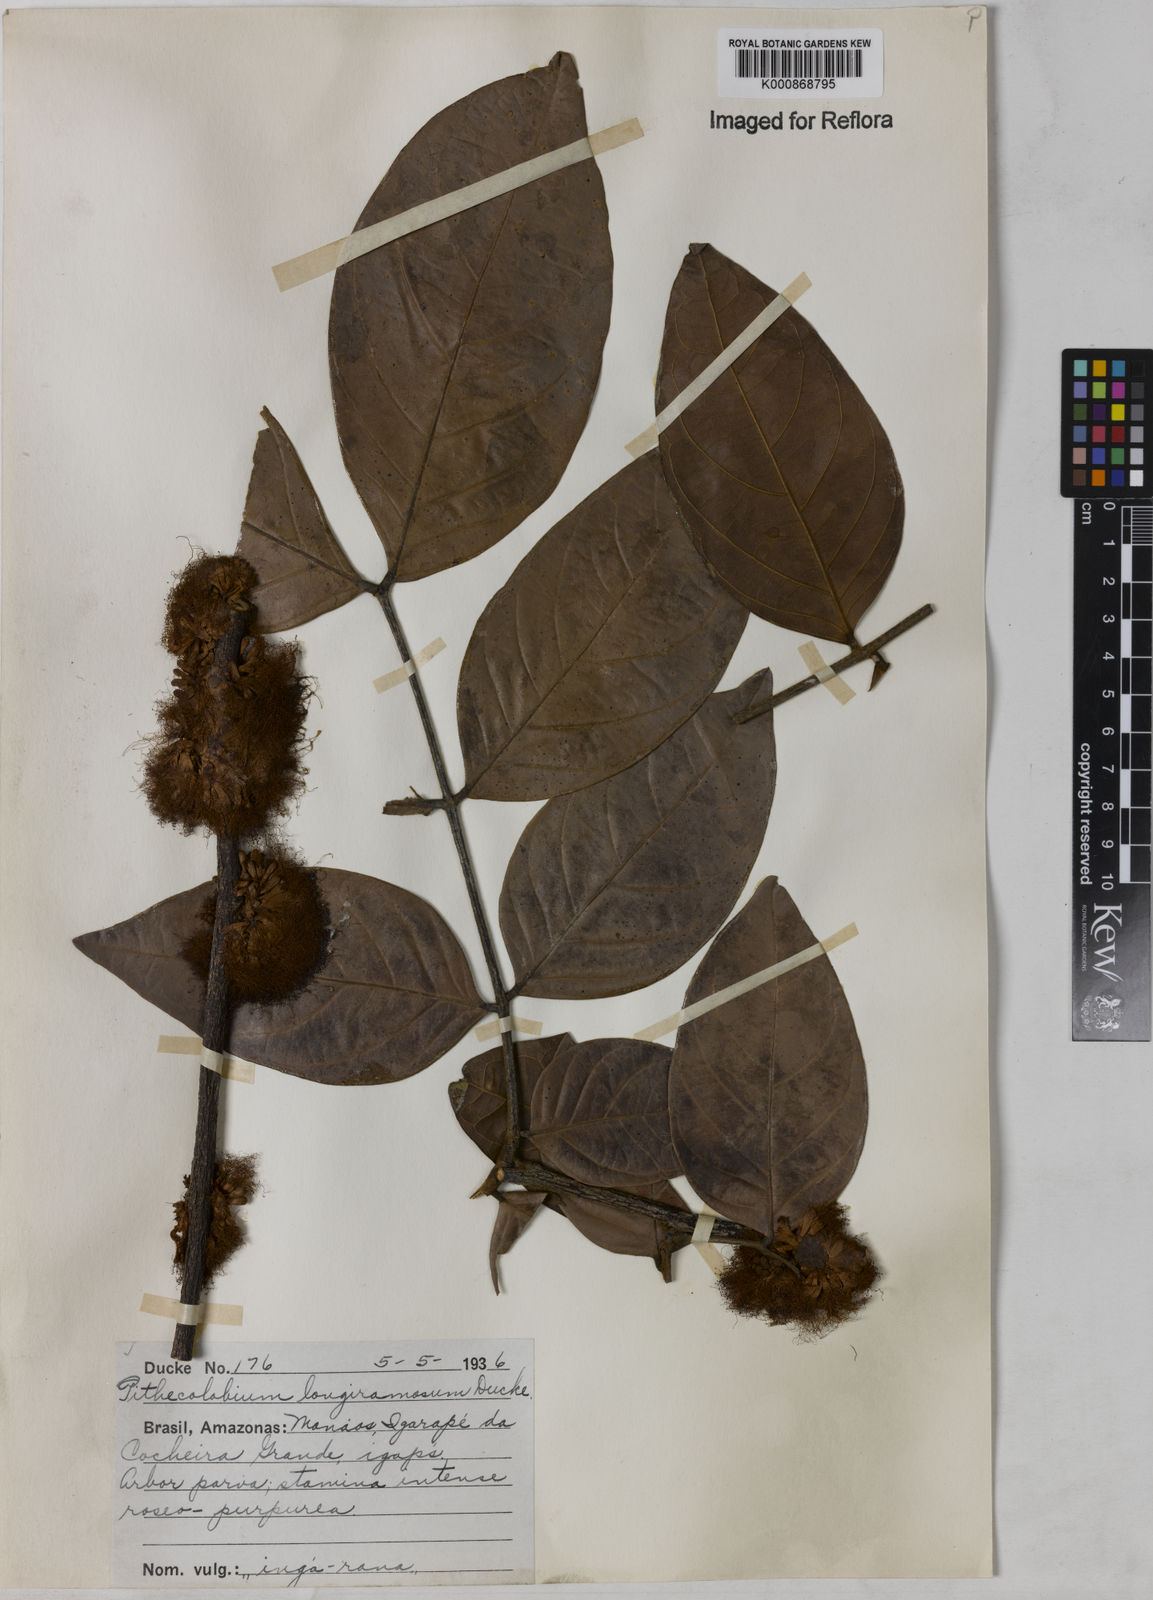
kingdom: Plantae
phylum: Tracheophyta
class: Magnoliopsida
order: Fabales
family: Fabaceae
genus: Zygia
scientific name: Zygia inaequalis
